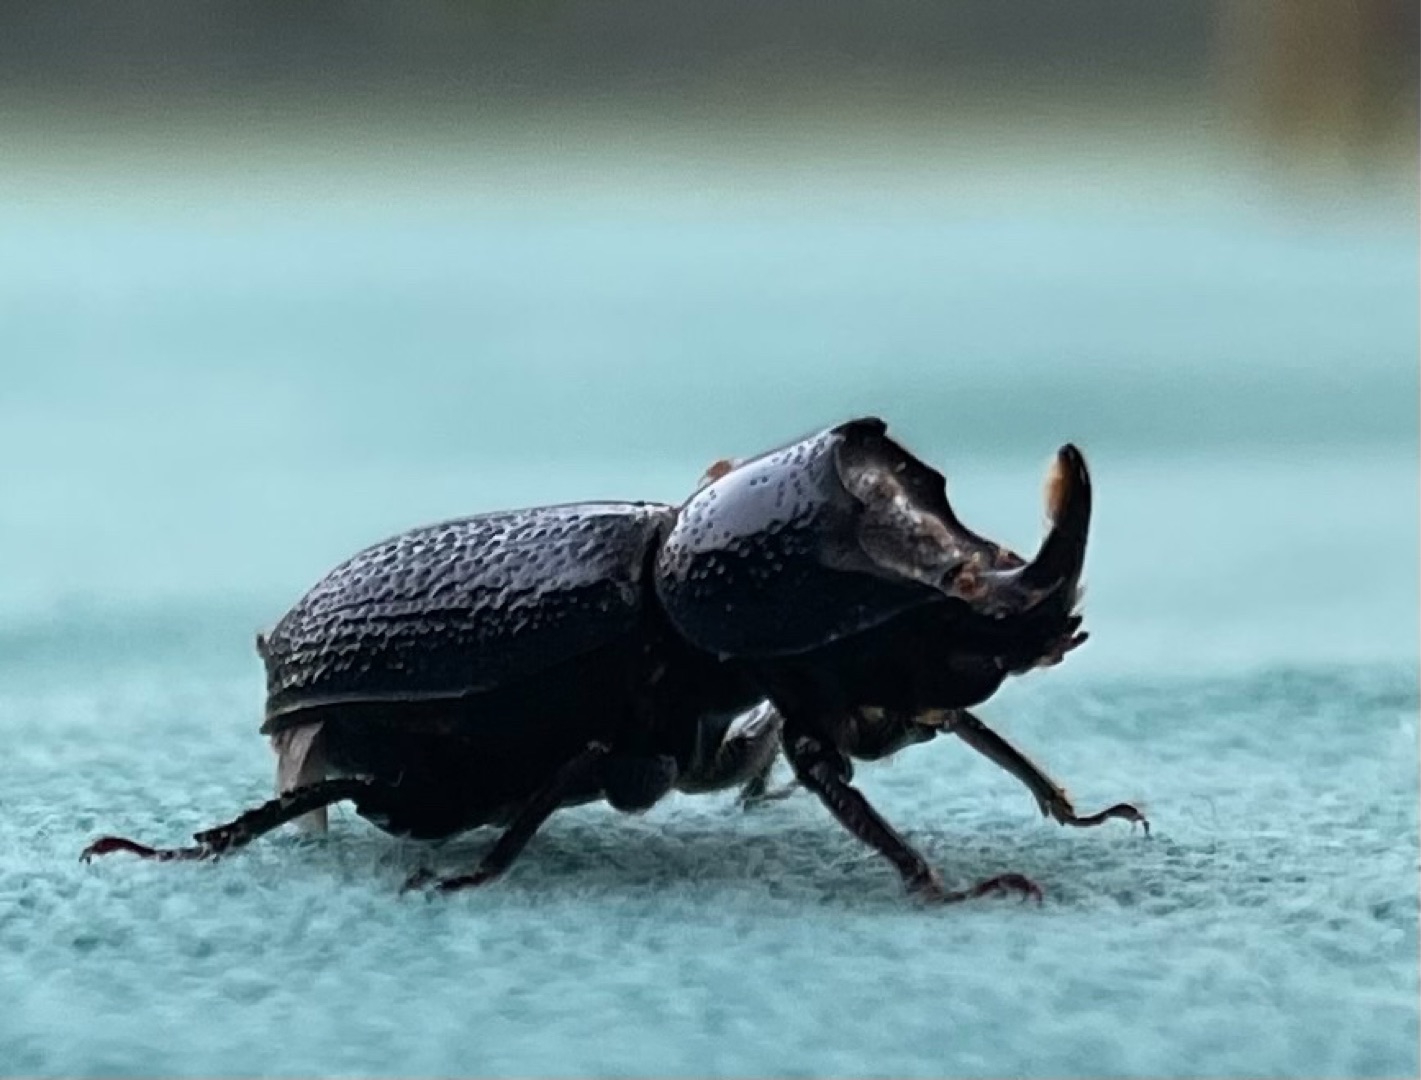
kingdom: Animalia
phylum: Arthropoda
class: Insecta
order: Coleoptera
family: Lucanidae
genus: Sinodendron
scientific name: Sinodendron cylindricum
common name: Valsehjort
